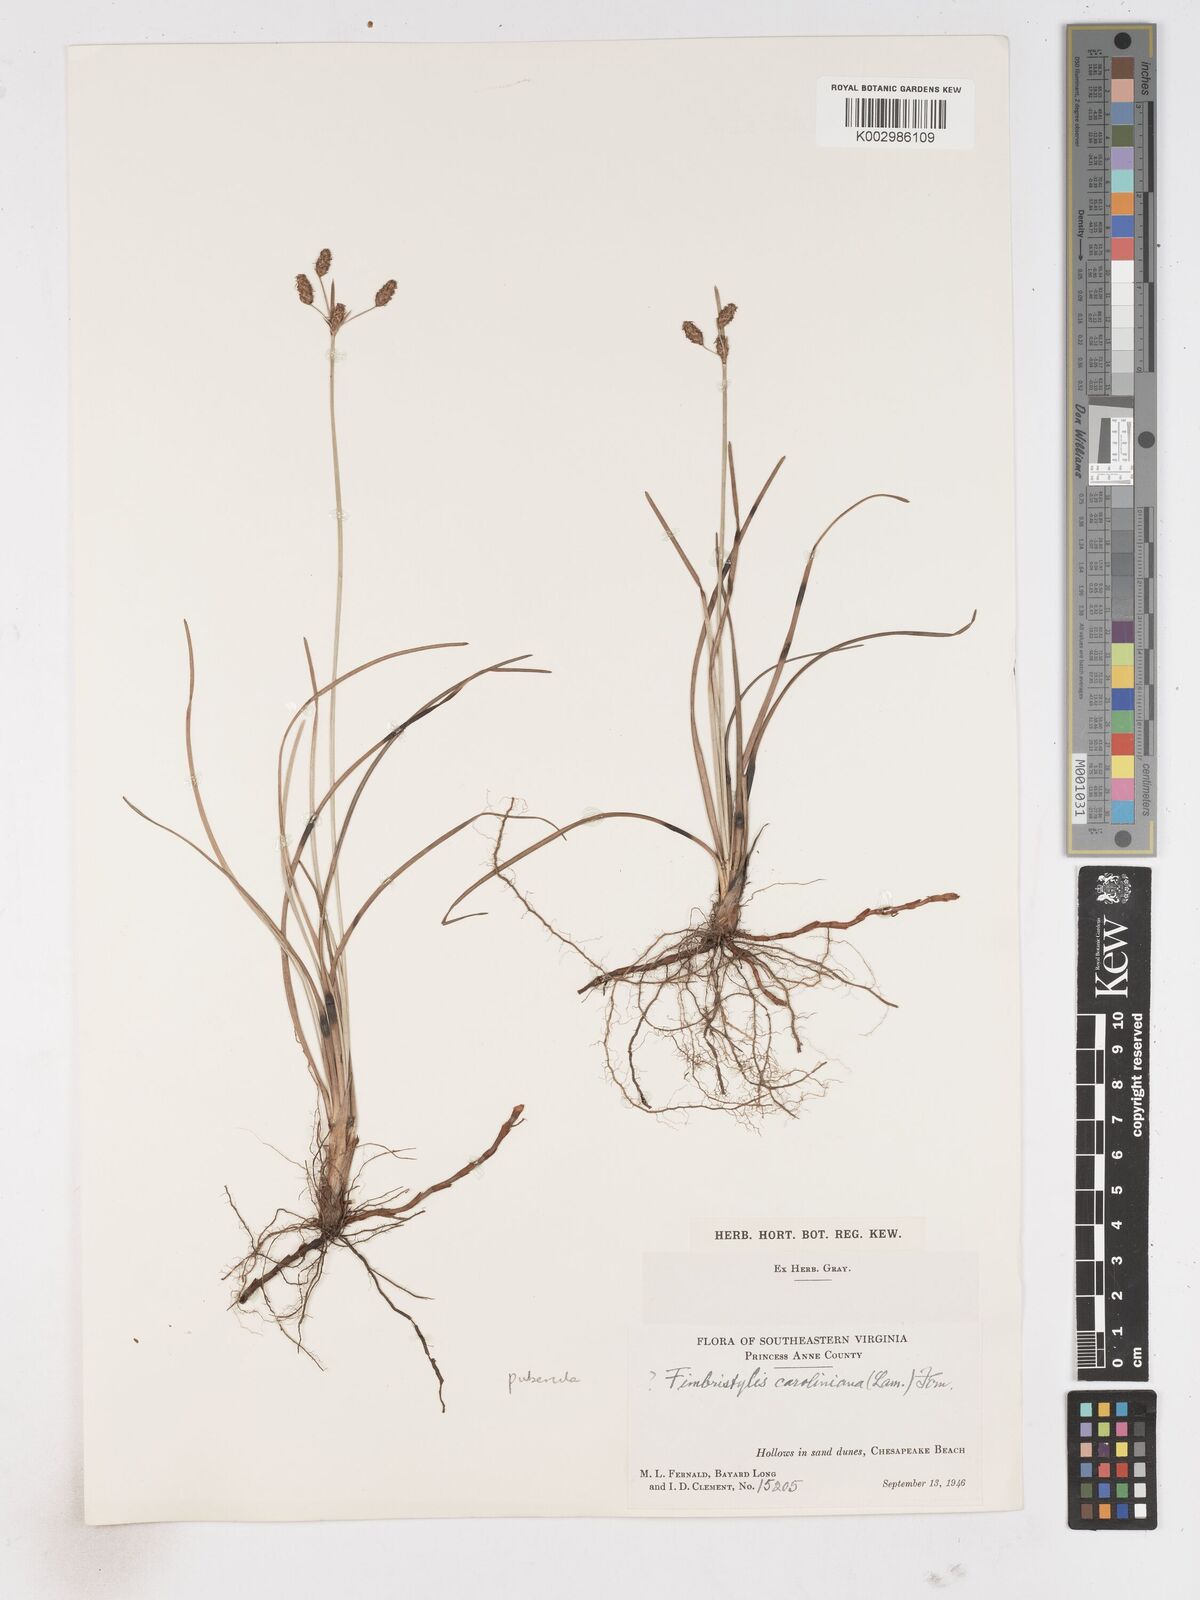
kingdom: Plantae
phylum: Tracheophyta
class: Liliopsida
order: Poales
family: Cyperaceae
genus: Fimbristylis
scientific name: Fimbristylis puberula
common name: Hairy fimbristylis
